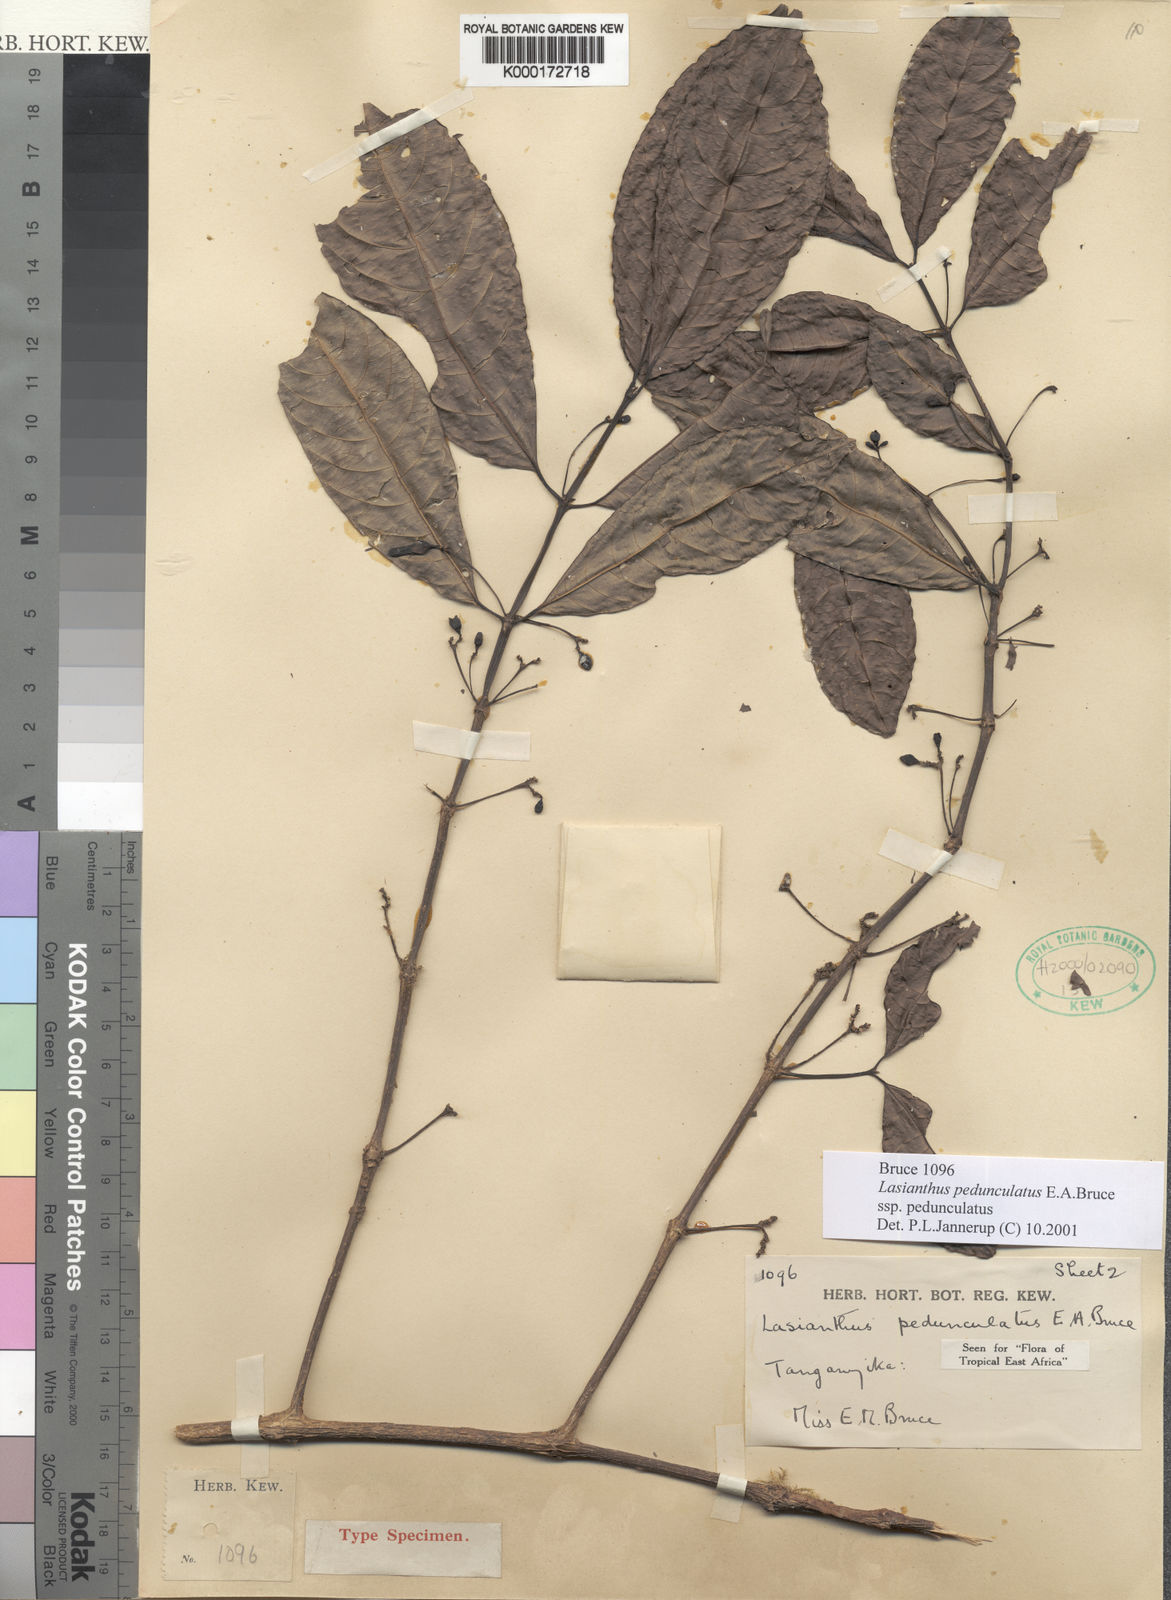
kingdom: Plantae
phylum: Tracheophyta
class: Magnoliopsida
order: Gentianales
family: Rubiaceae
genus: Lasianthus
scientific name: Lasianthus pedunculatus
